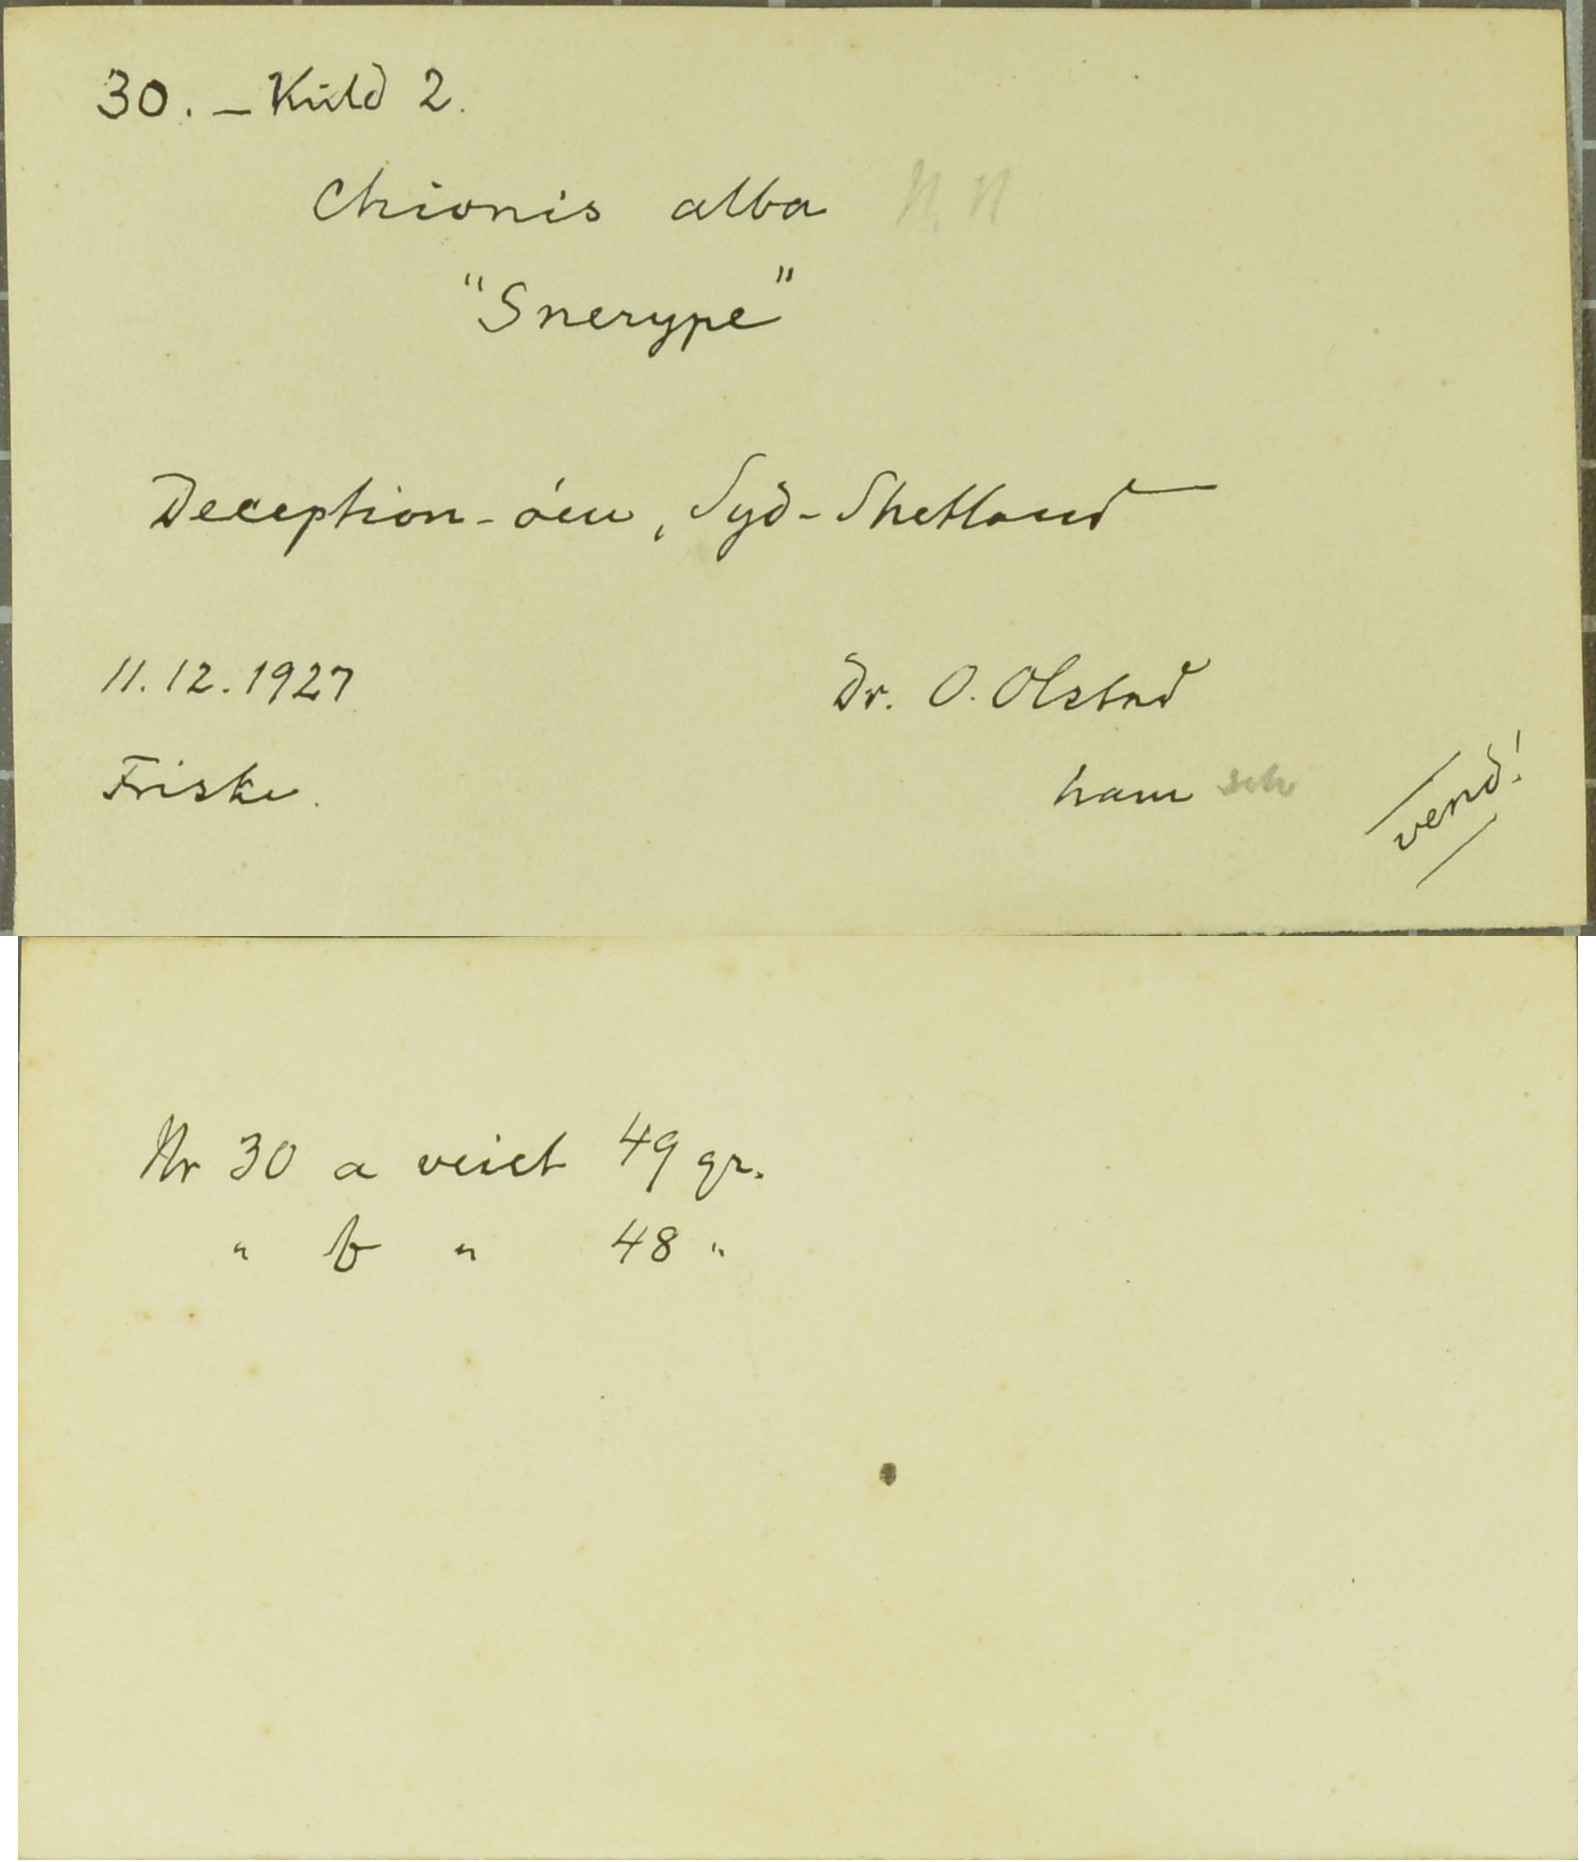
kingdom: Animalia
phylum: Chordata
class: Aves
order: Charadriiformes
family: Chionidae
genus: Chionis
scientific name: Chionis albus
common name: Snowy sheathbill
